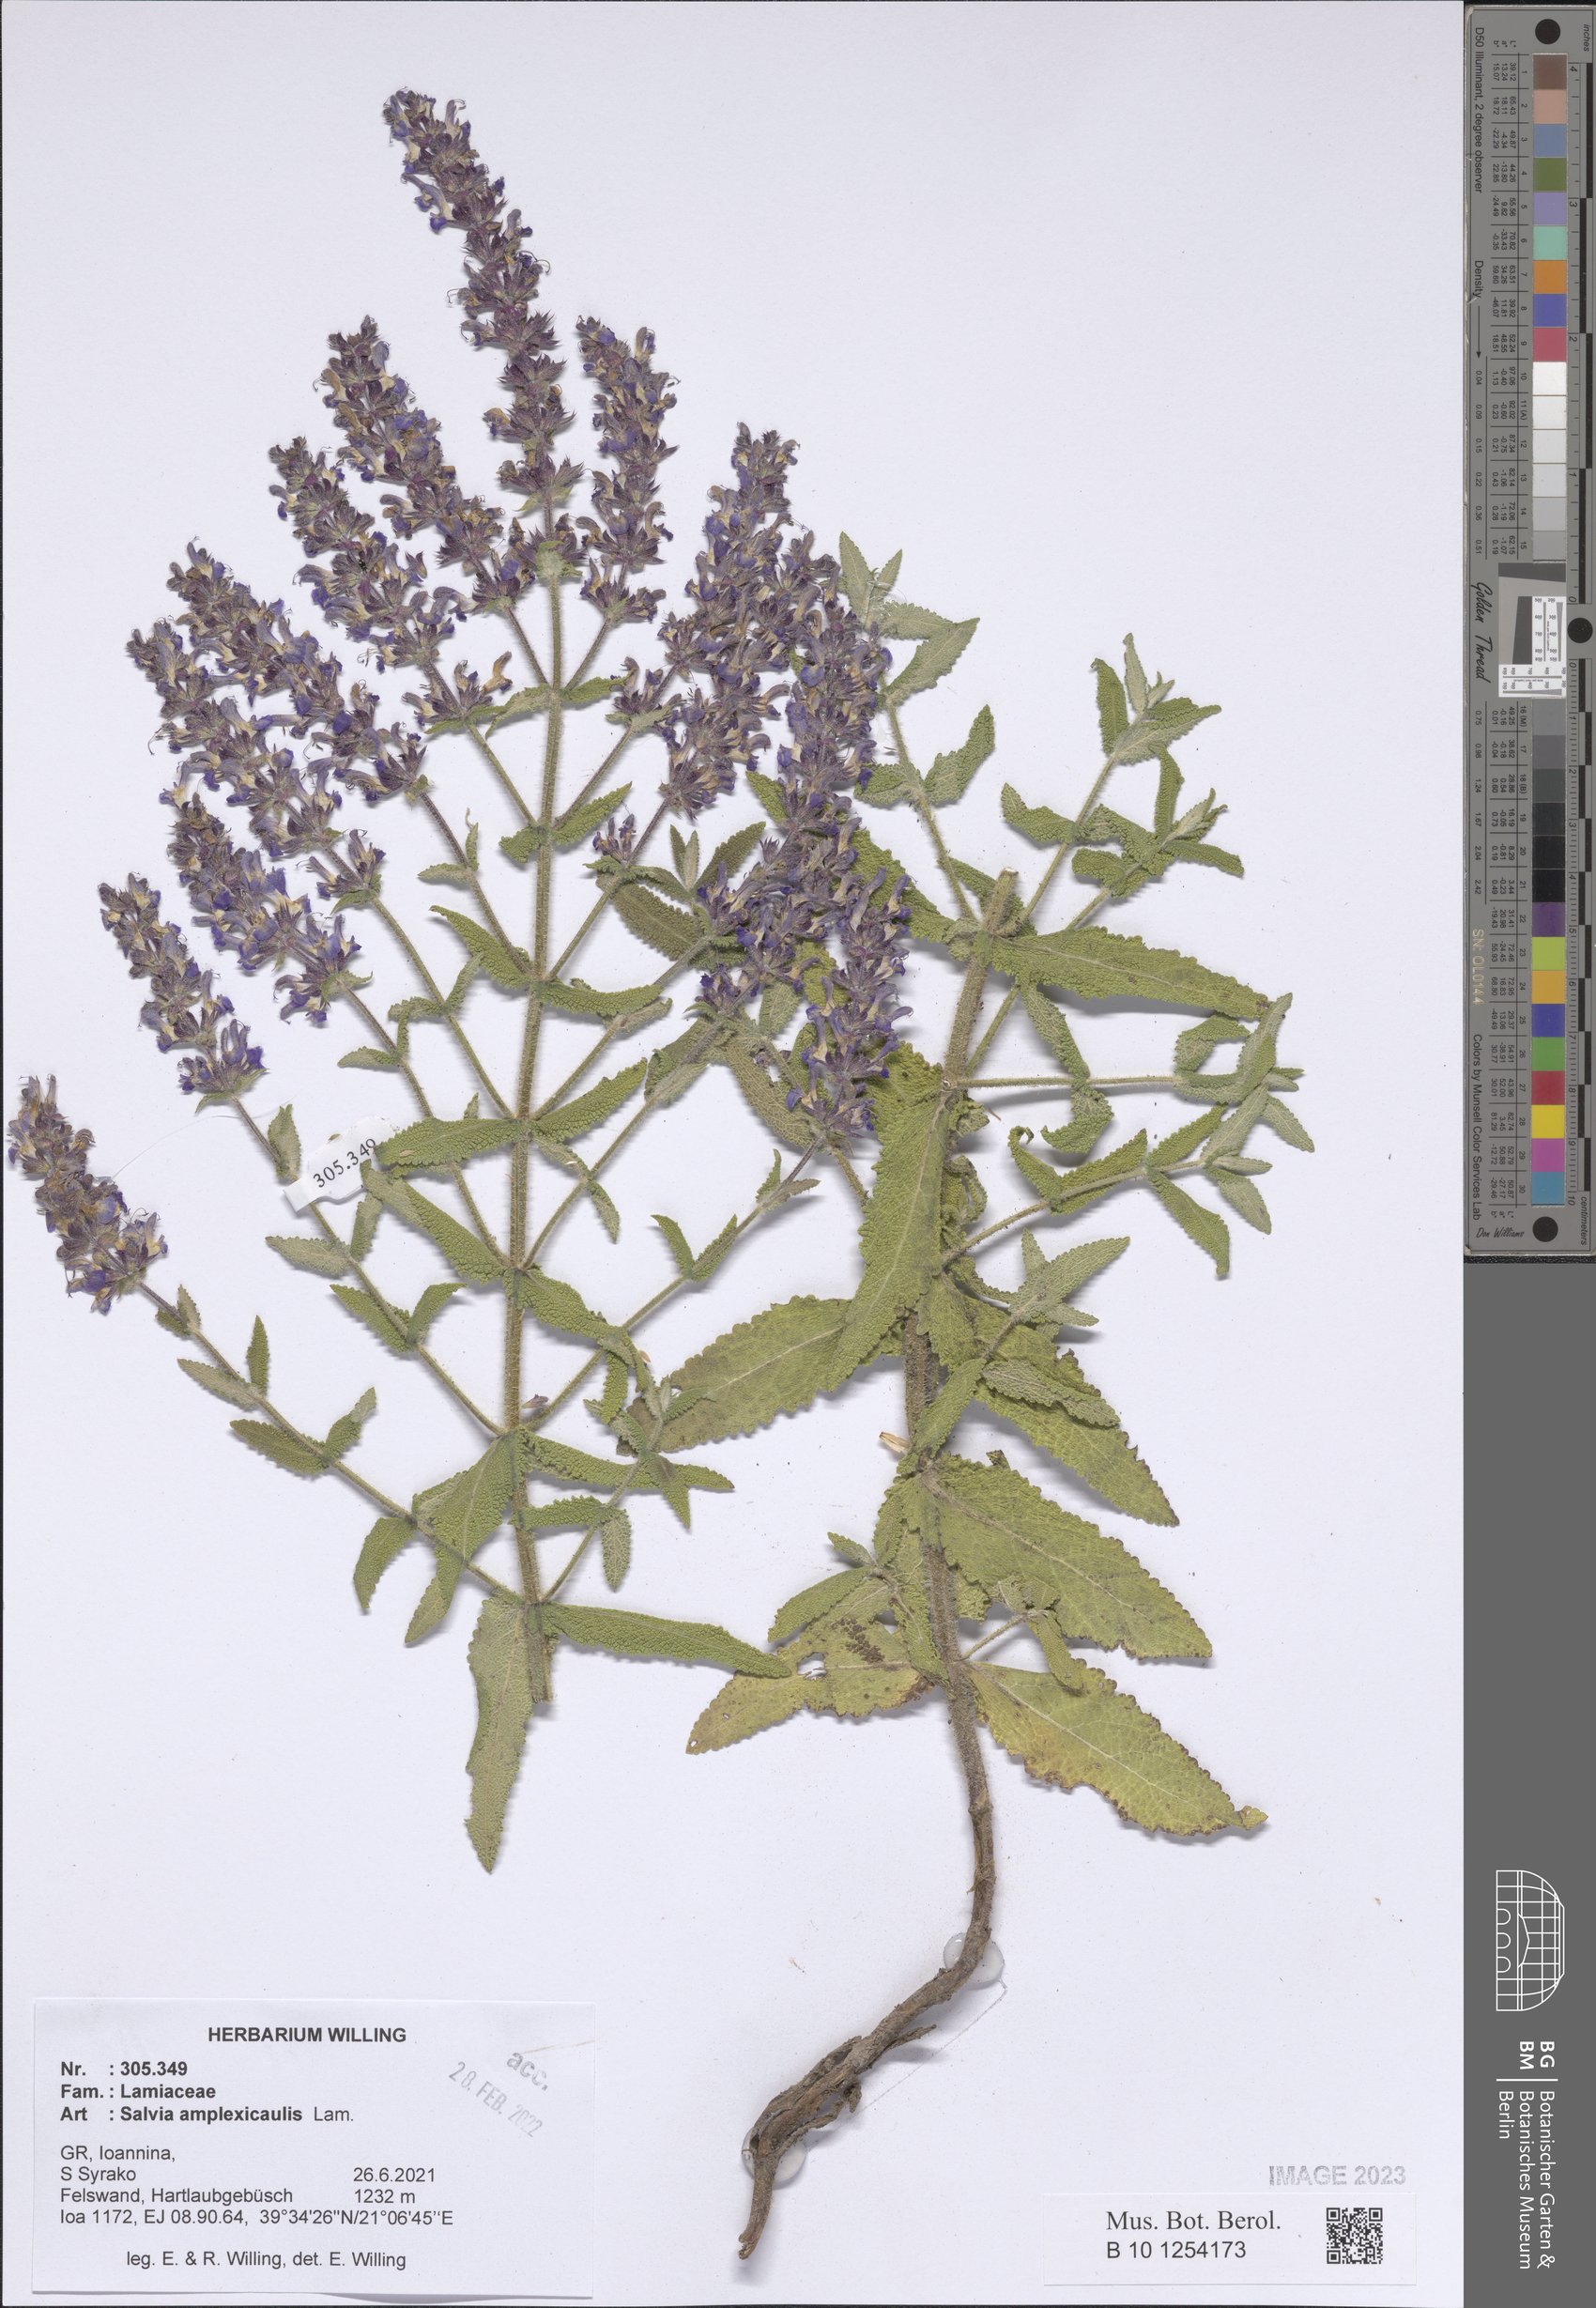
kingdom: Plantae
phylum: Tracheophyta
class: Magnoliopsida
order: Lamiales
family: Lamiaceae
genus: Salvia
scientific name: Salvia amplexicaulis
